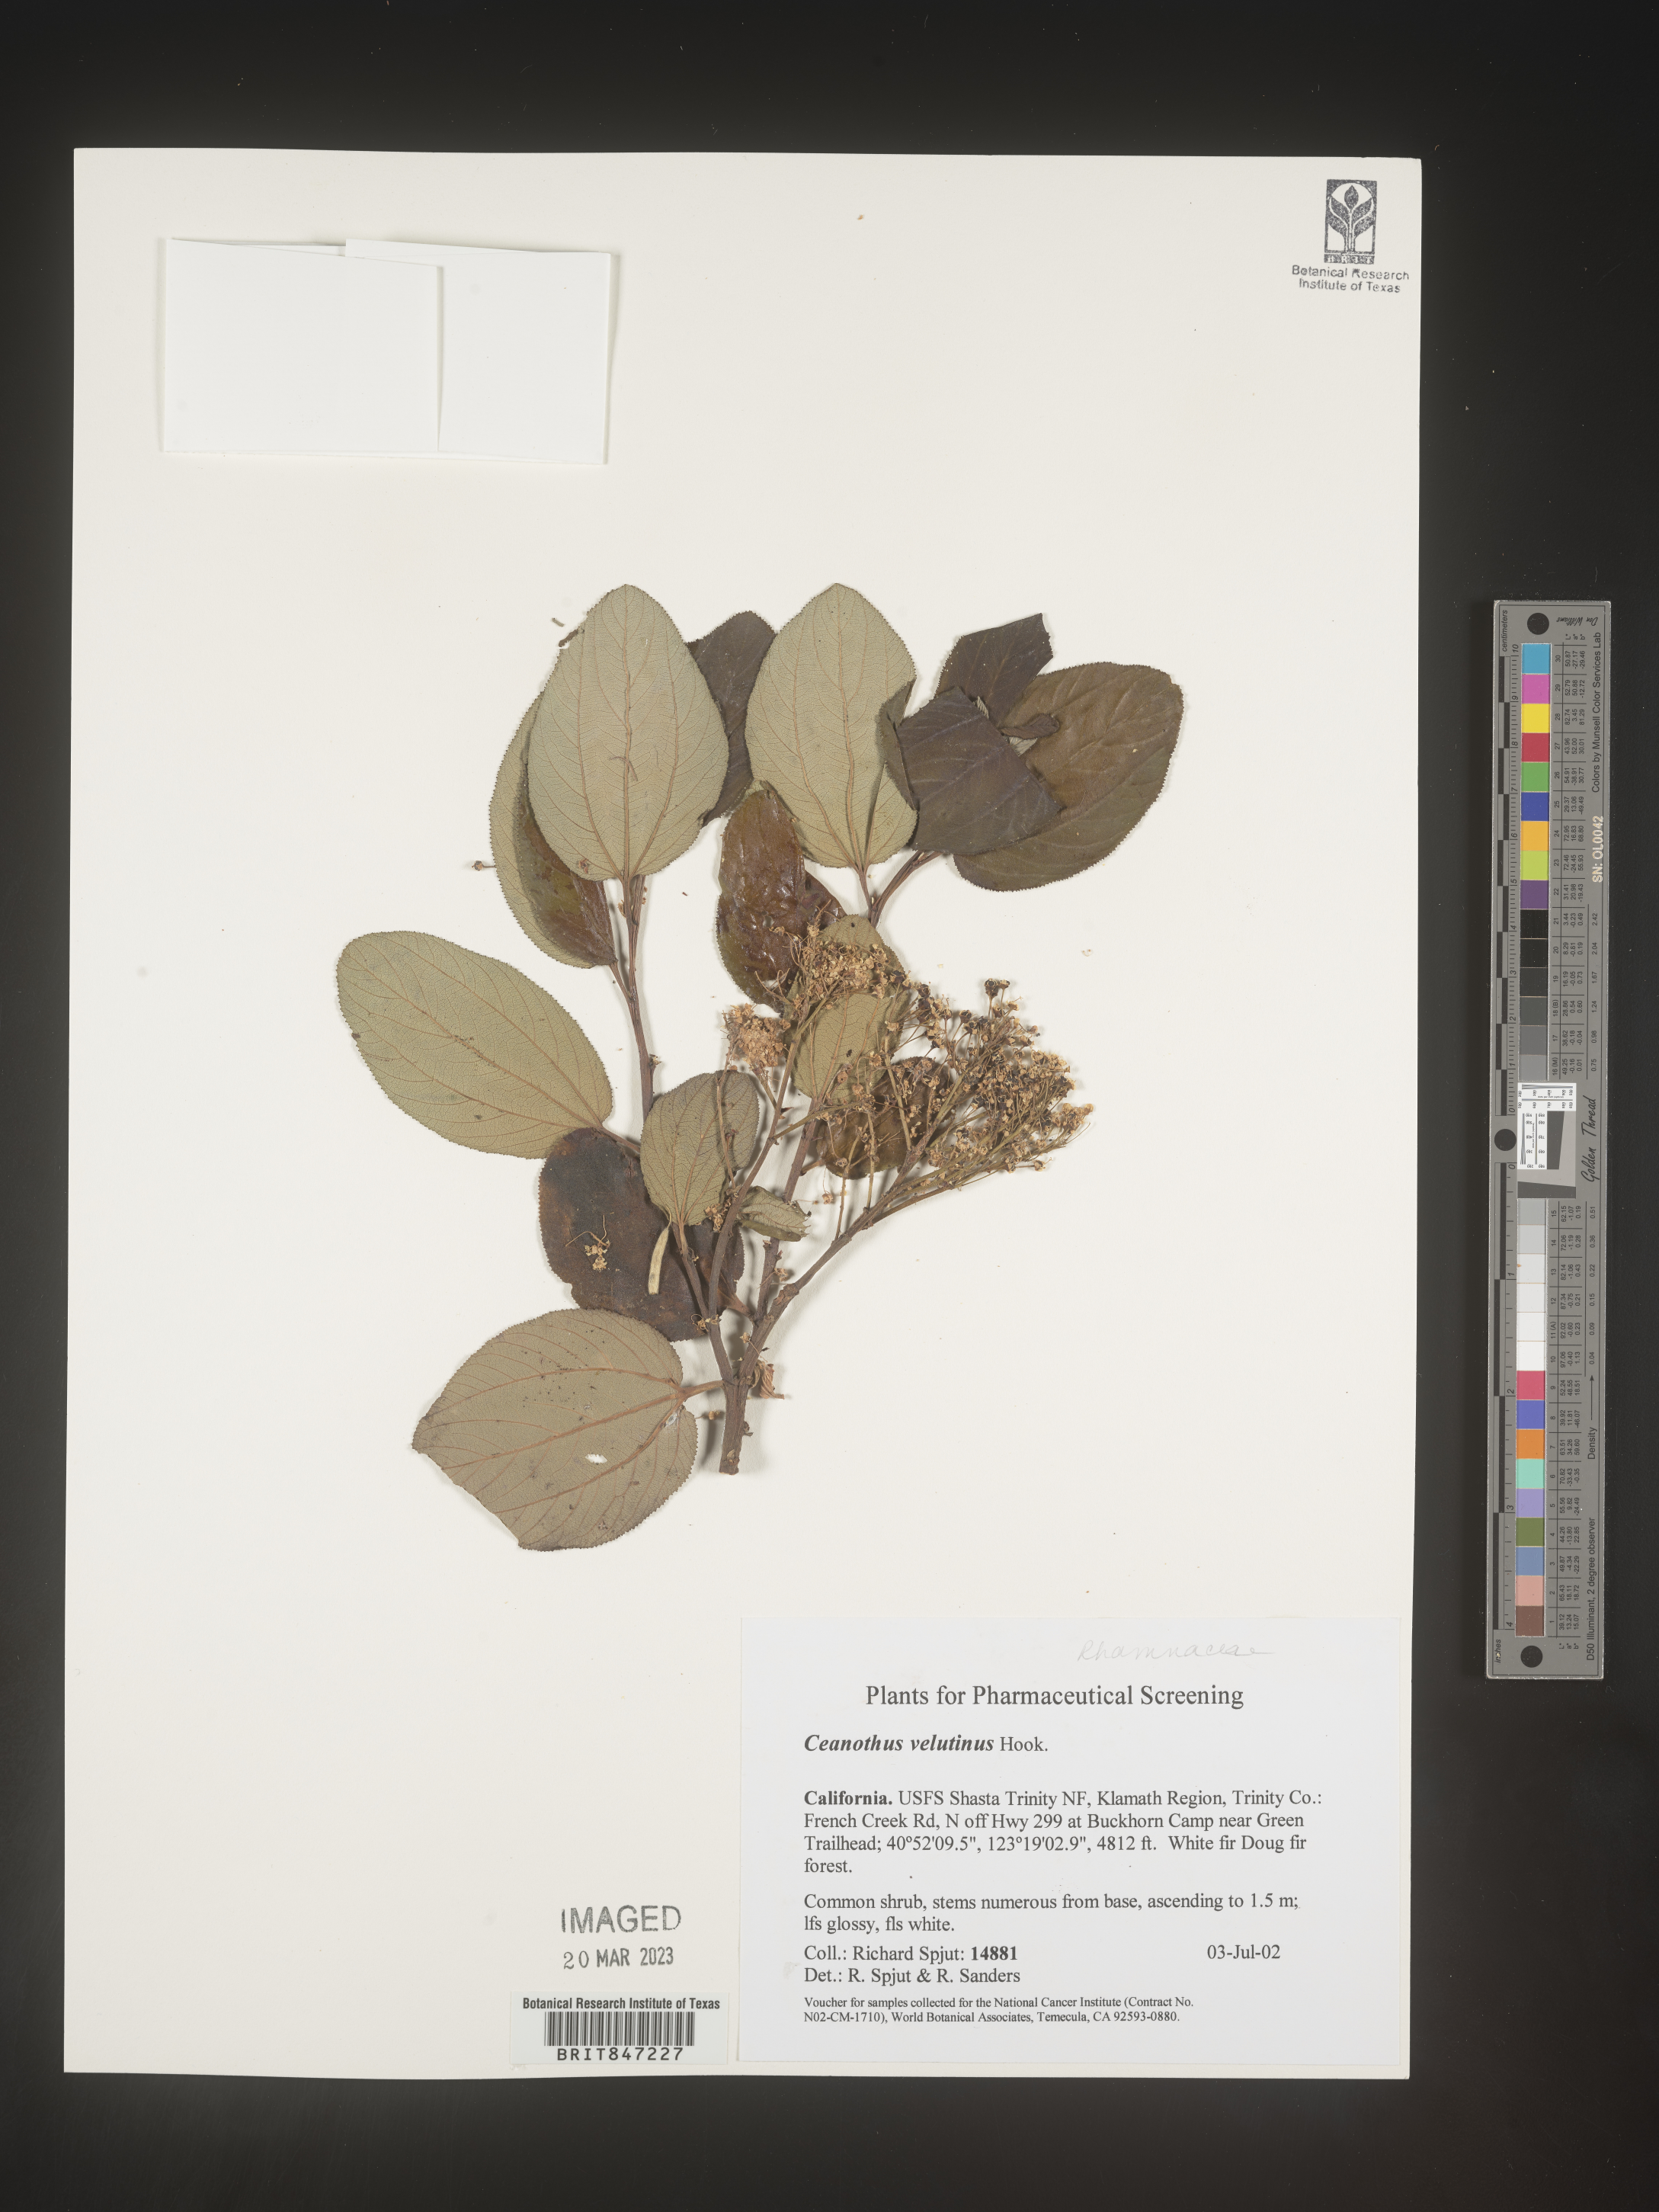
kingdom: Plantae
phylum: Tracheophyta
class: Magnoliopsida
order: Rosales
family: Rhamnaceae
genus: Ceanothus
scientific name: Ceanothus velutinus
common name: Snowbrush
